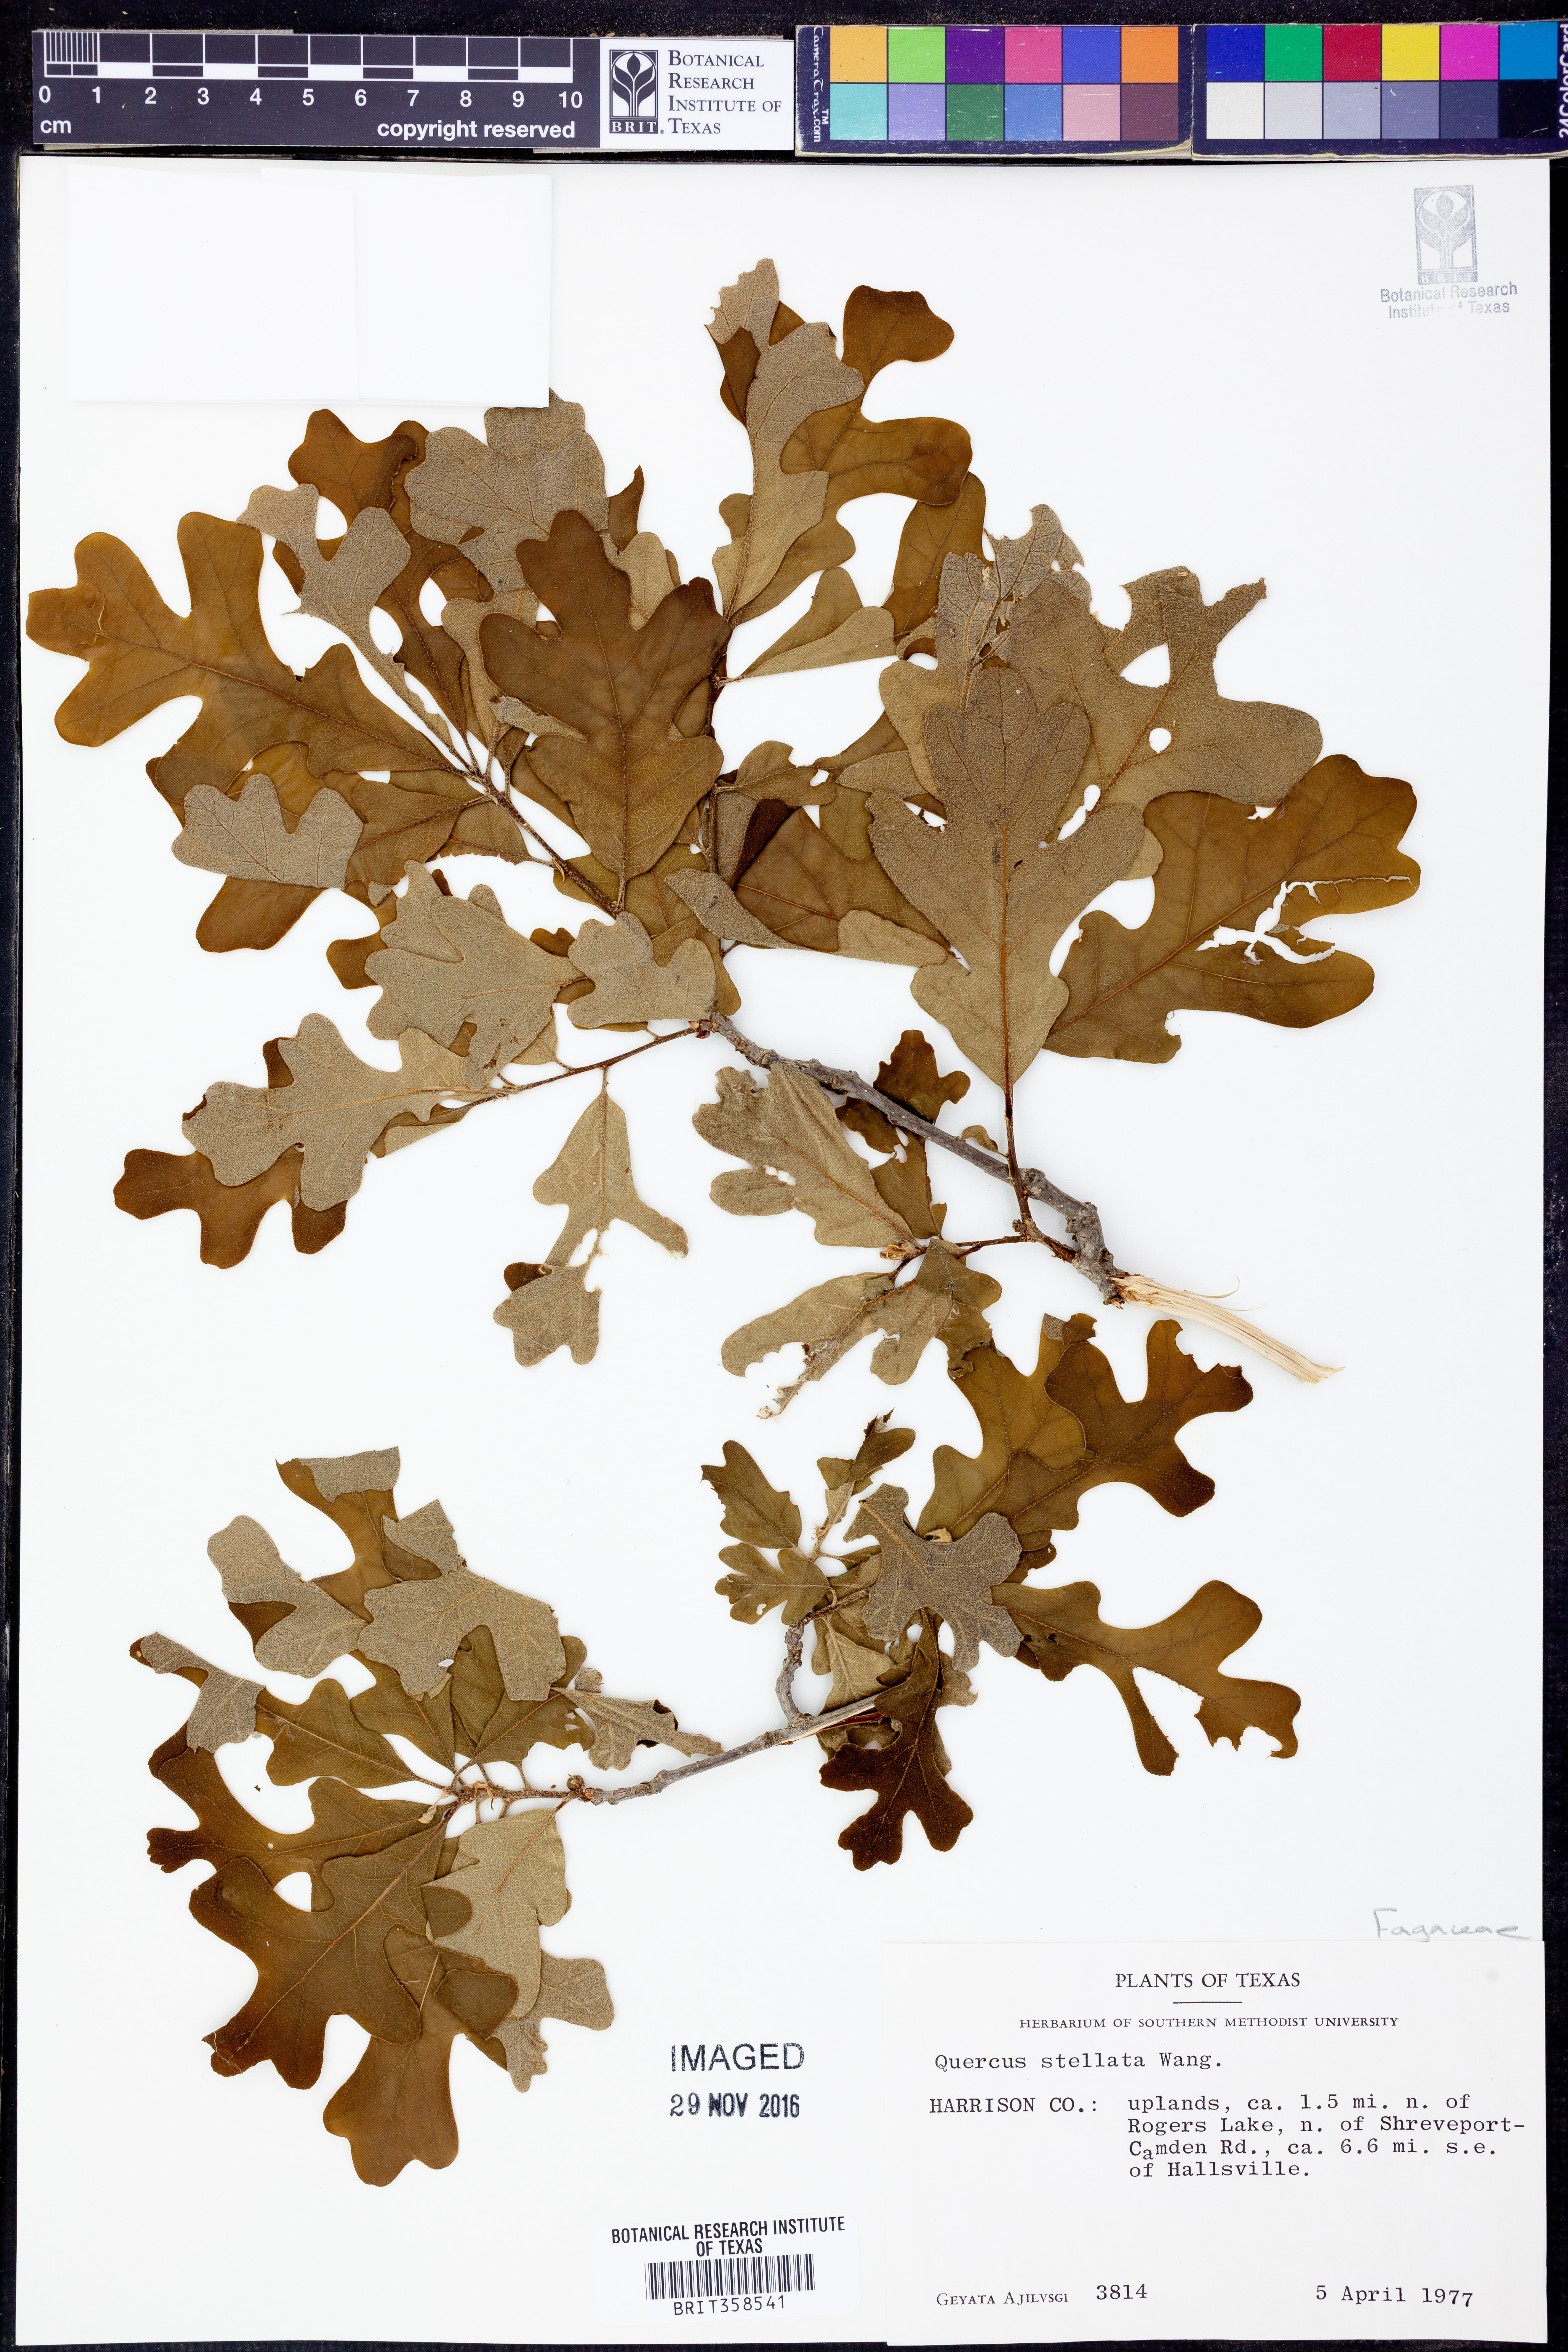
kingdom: Plantae
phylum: Tracheophyta
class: Magnoliopsida
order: Fagales
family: Fagaceae
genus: Quercus
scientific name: Quercus stellata
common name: Post oak
